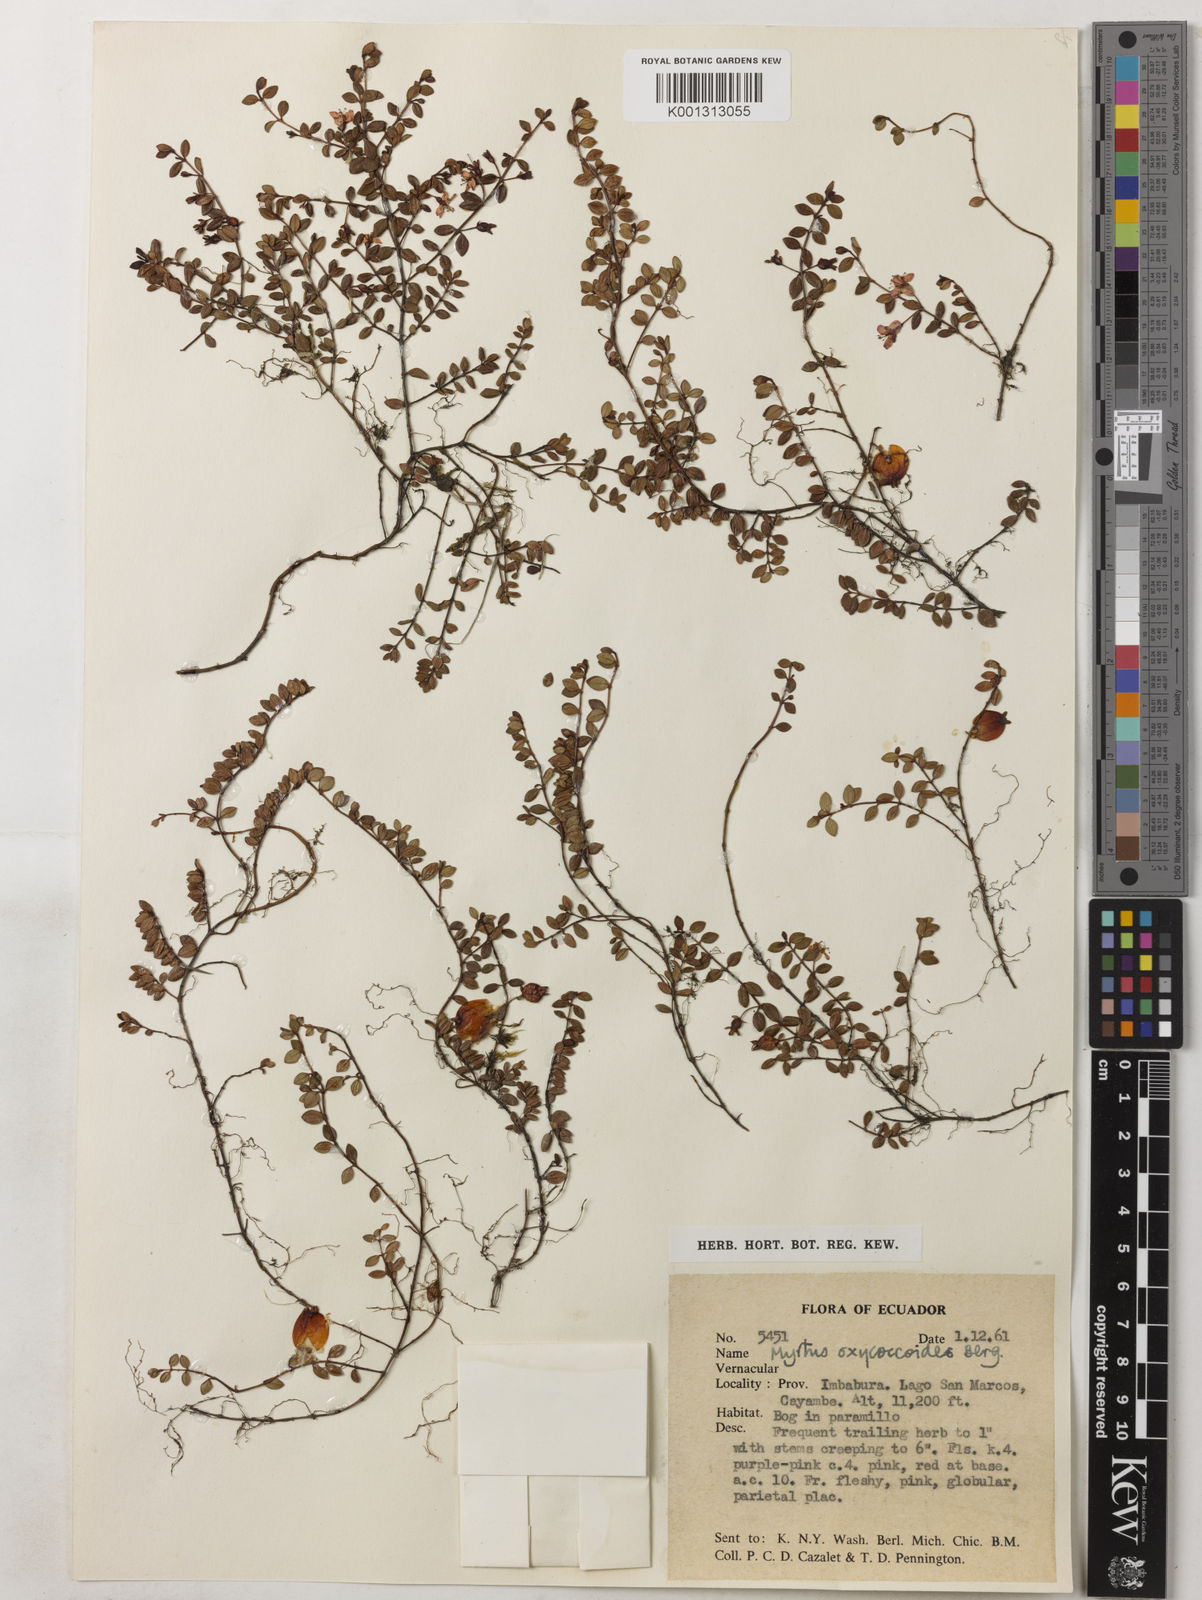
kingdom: Plantae
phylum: Tracheophyta
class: Magnoliopsida
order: Myrtales
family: Myrtaceae
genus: Myrteola
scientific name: Myrteola nummularia
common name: Cranberry-myrtle
